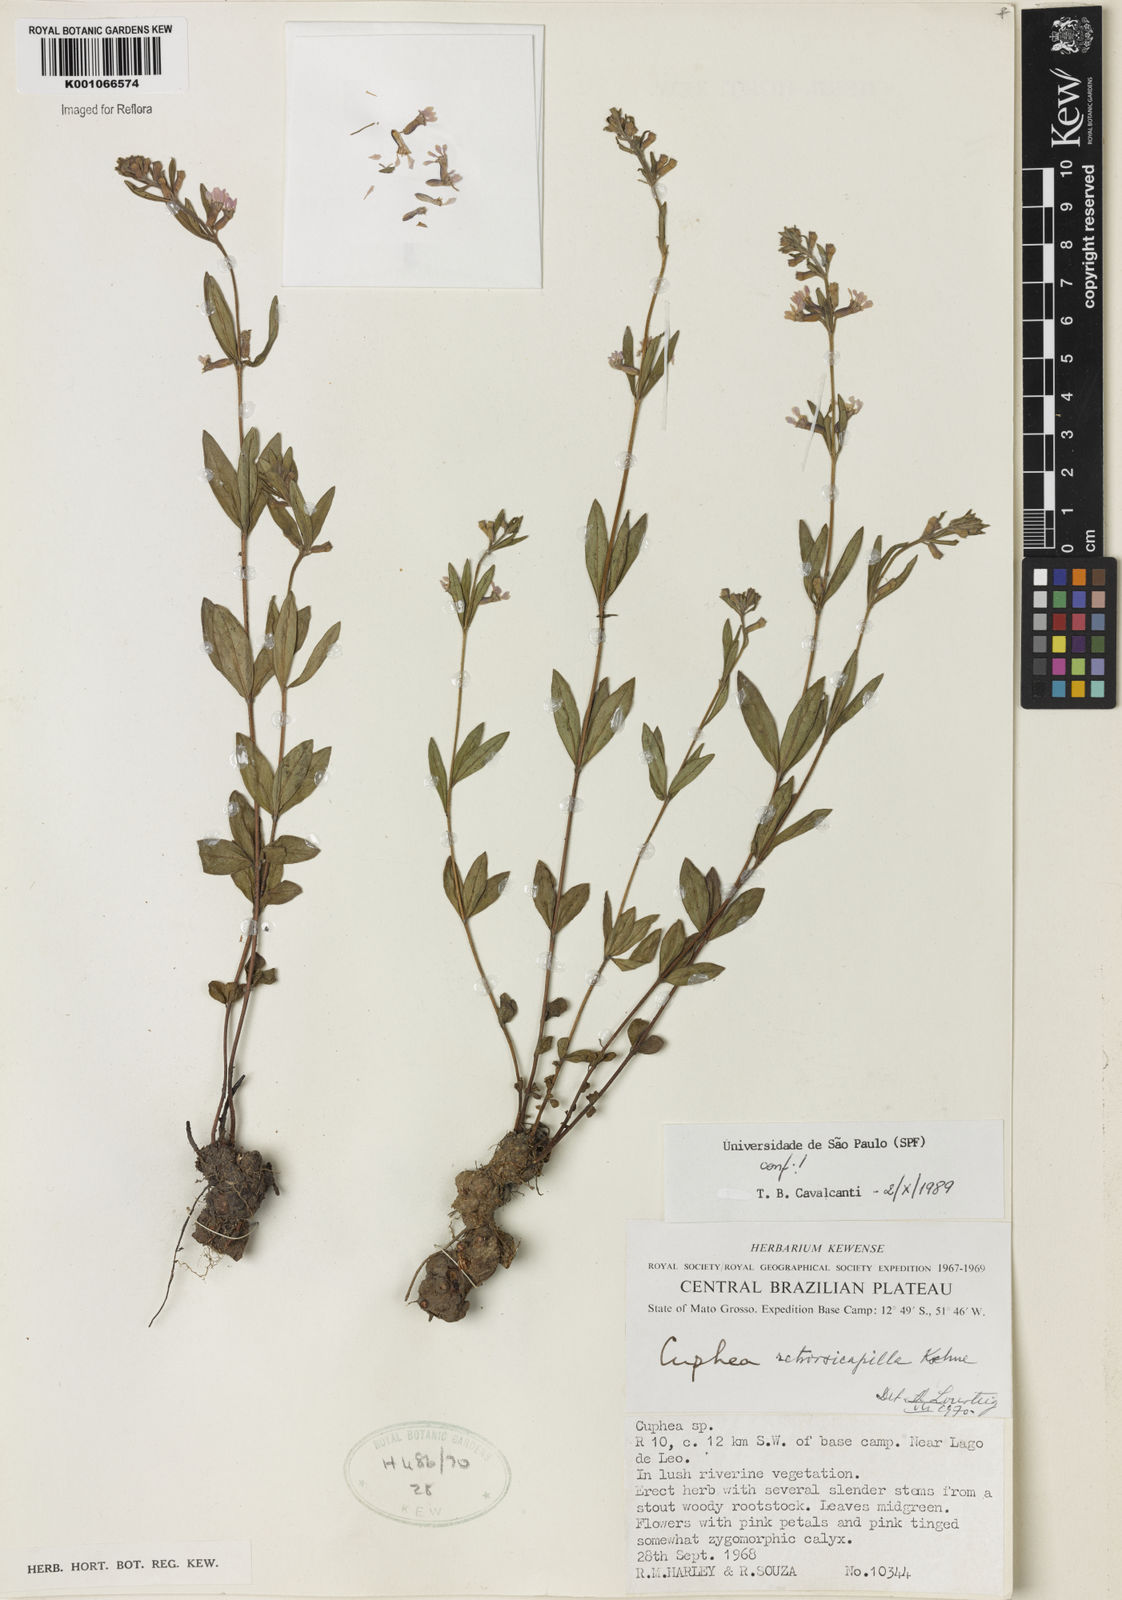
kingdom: Plantae
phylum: Tracheophyta
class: Magnoliopsida
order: Myrtales
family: Lythraceae
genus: Cuphea
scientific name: Cuphea retrorsicapilla
